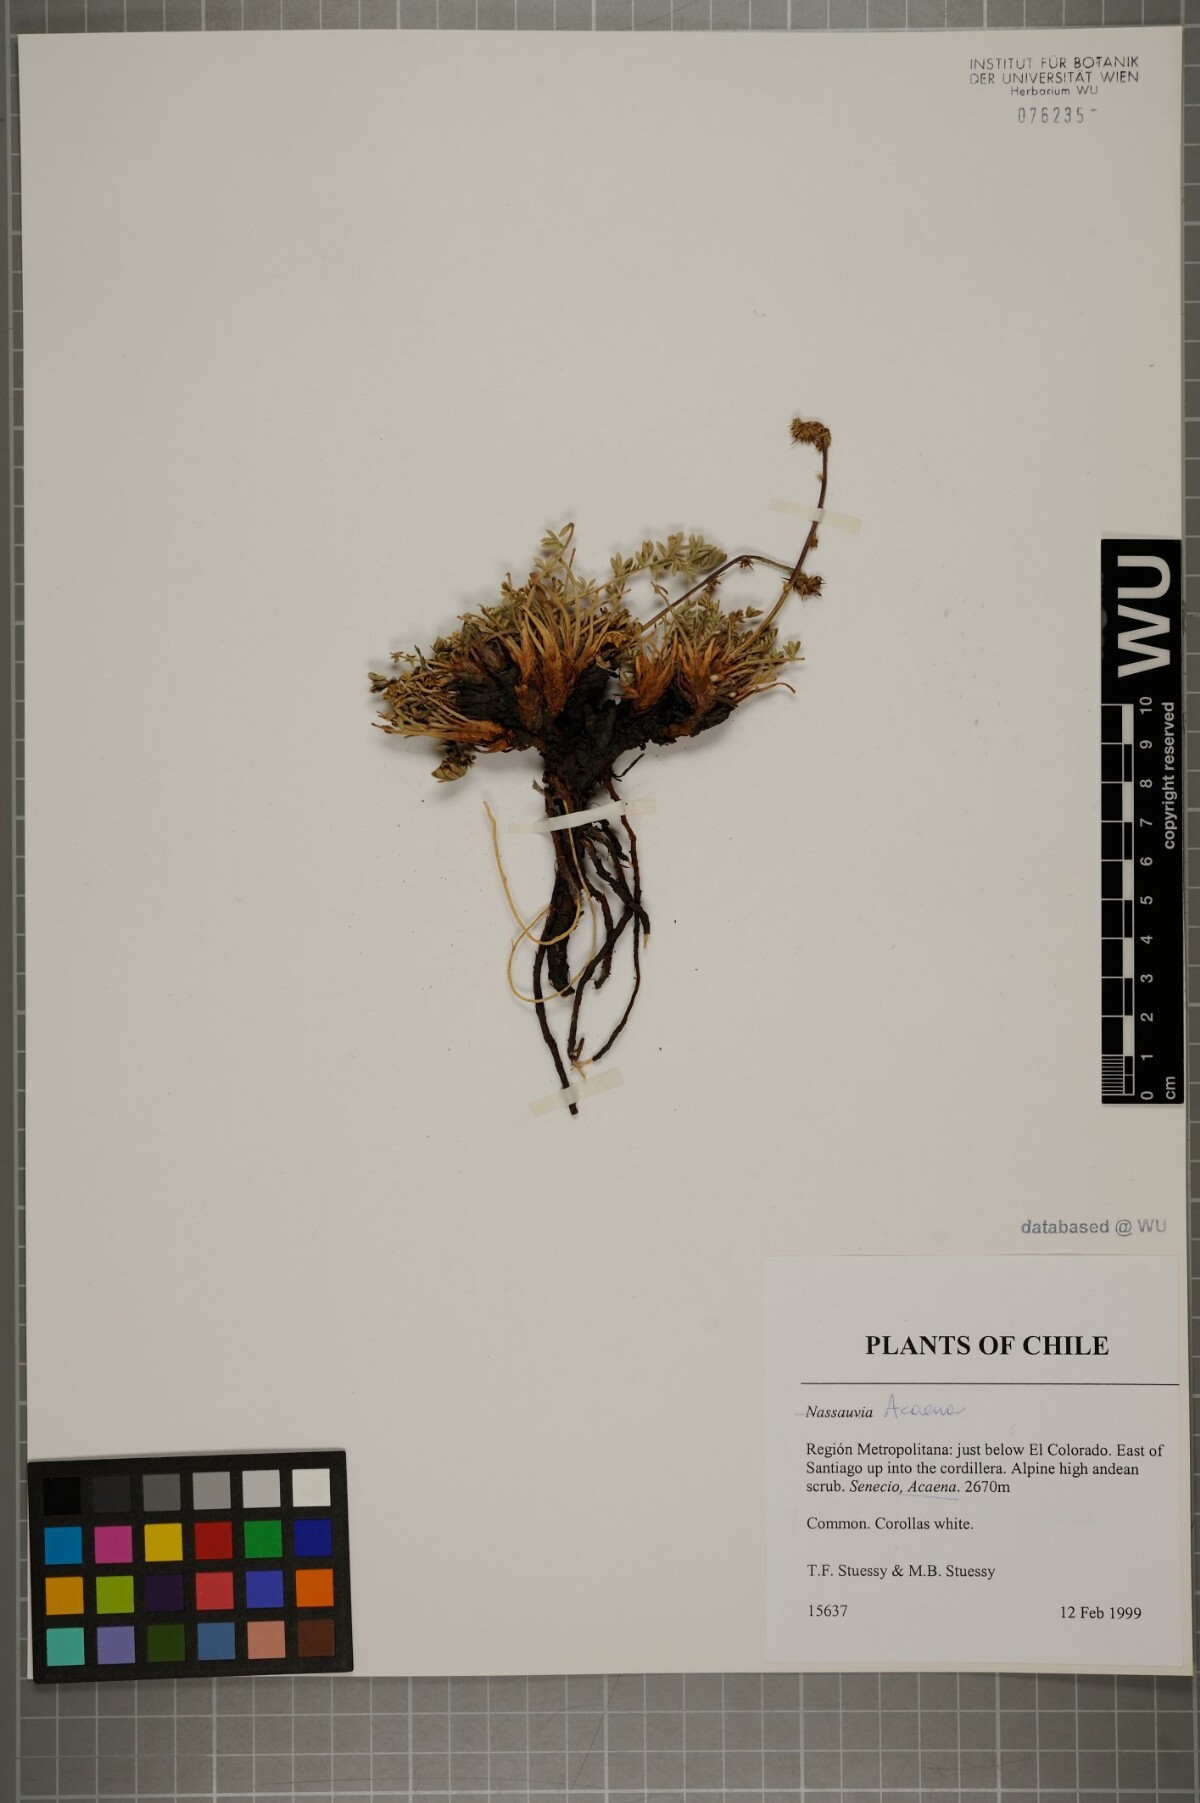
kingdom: Plantae
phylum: Tracheophyta
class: Magnoliopsida
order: Rosales
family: Rosaceae
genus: Acaena
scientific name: Acaena
